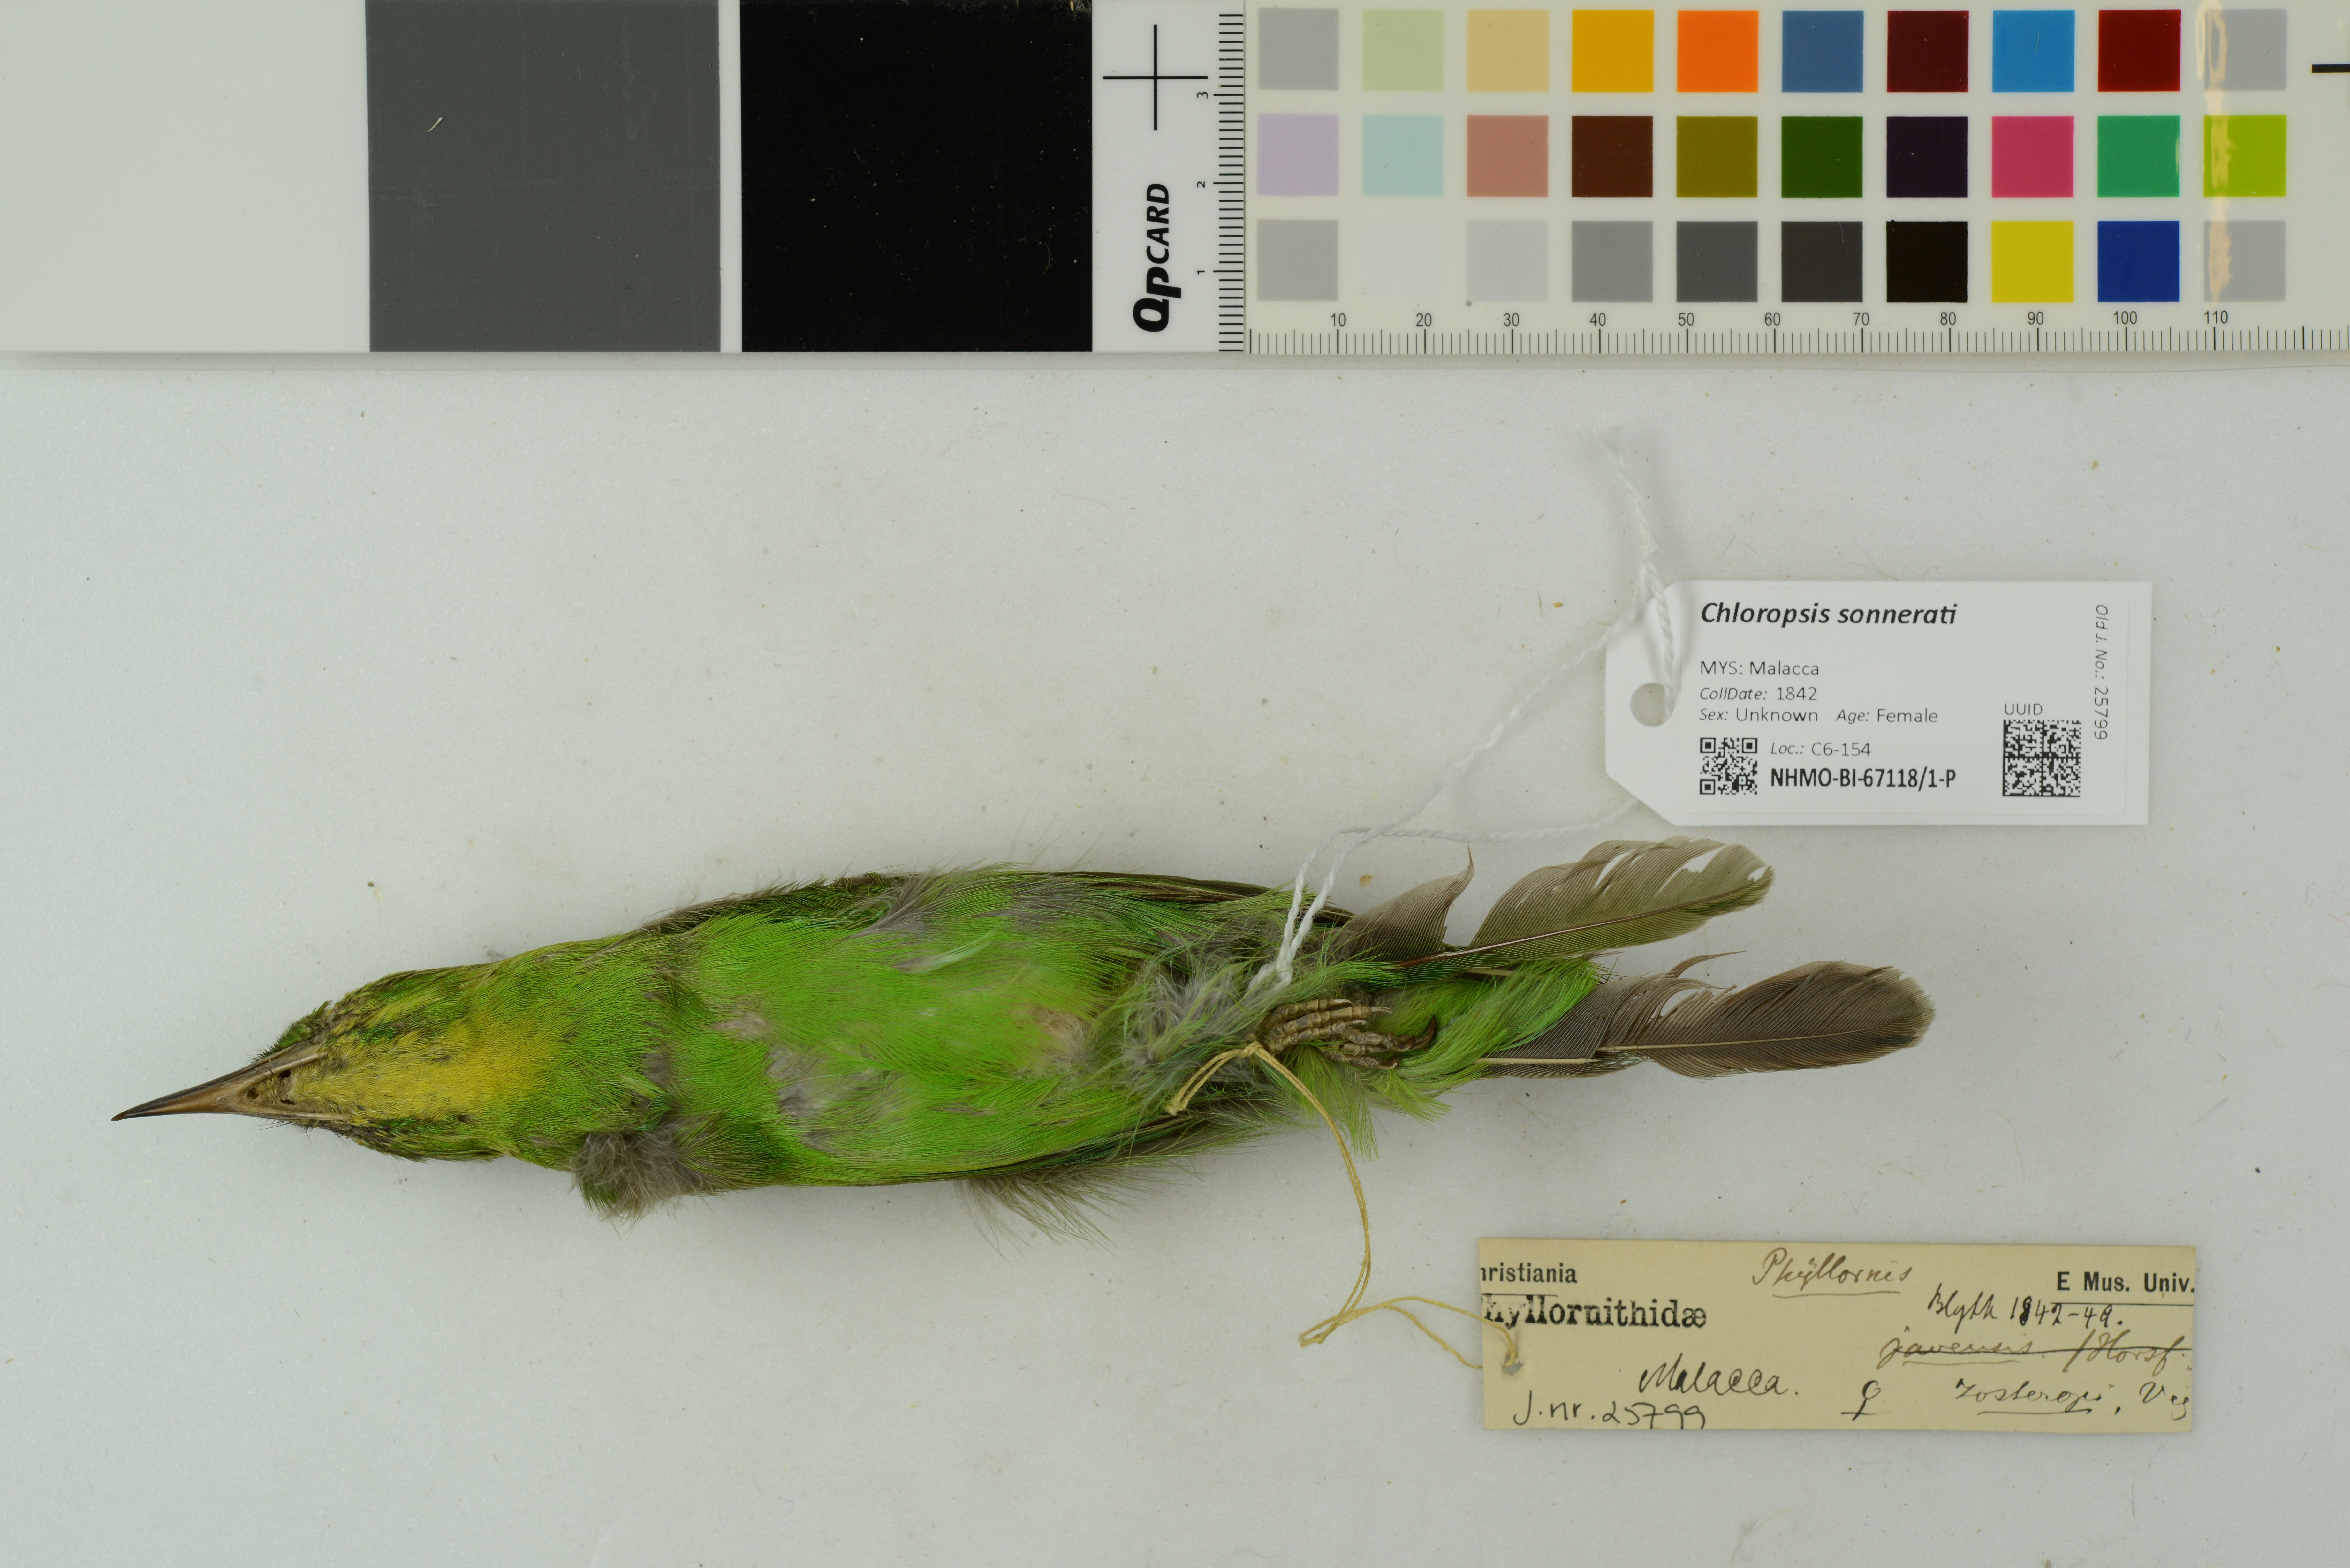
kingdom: Animalia
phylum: Chordata
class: Aves
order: Passeriformes
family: Chloropseidae
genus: Chloropsis
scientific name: Chloropsis sonnerati
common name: Greater green leafbird
